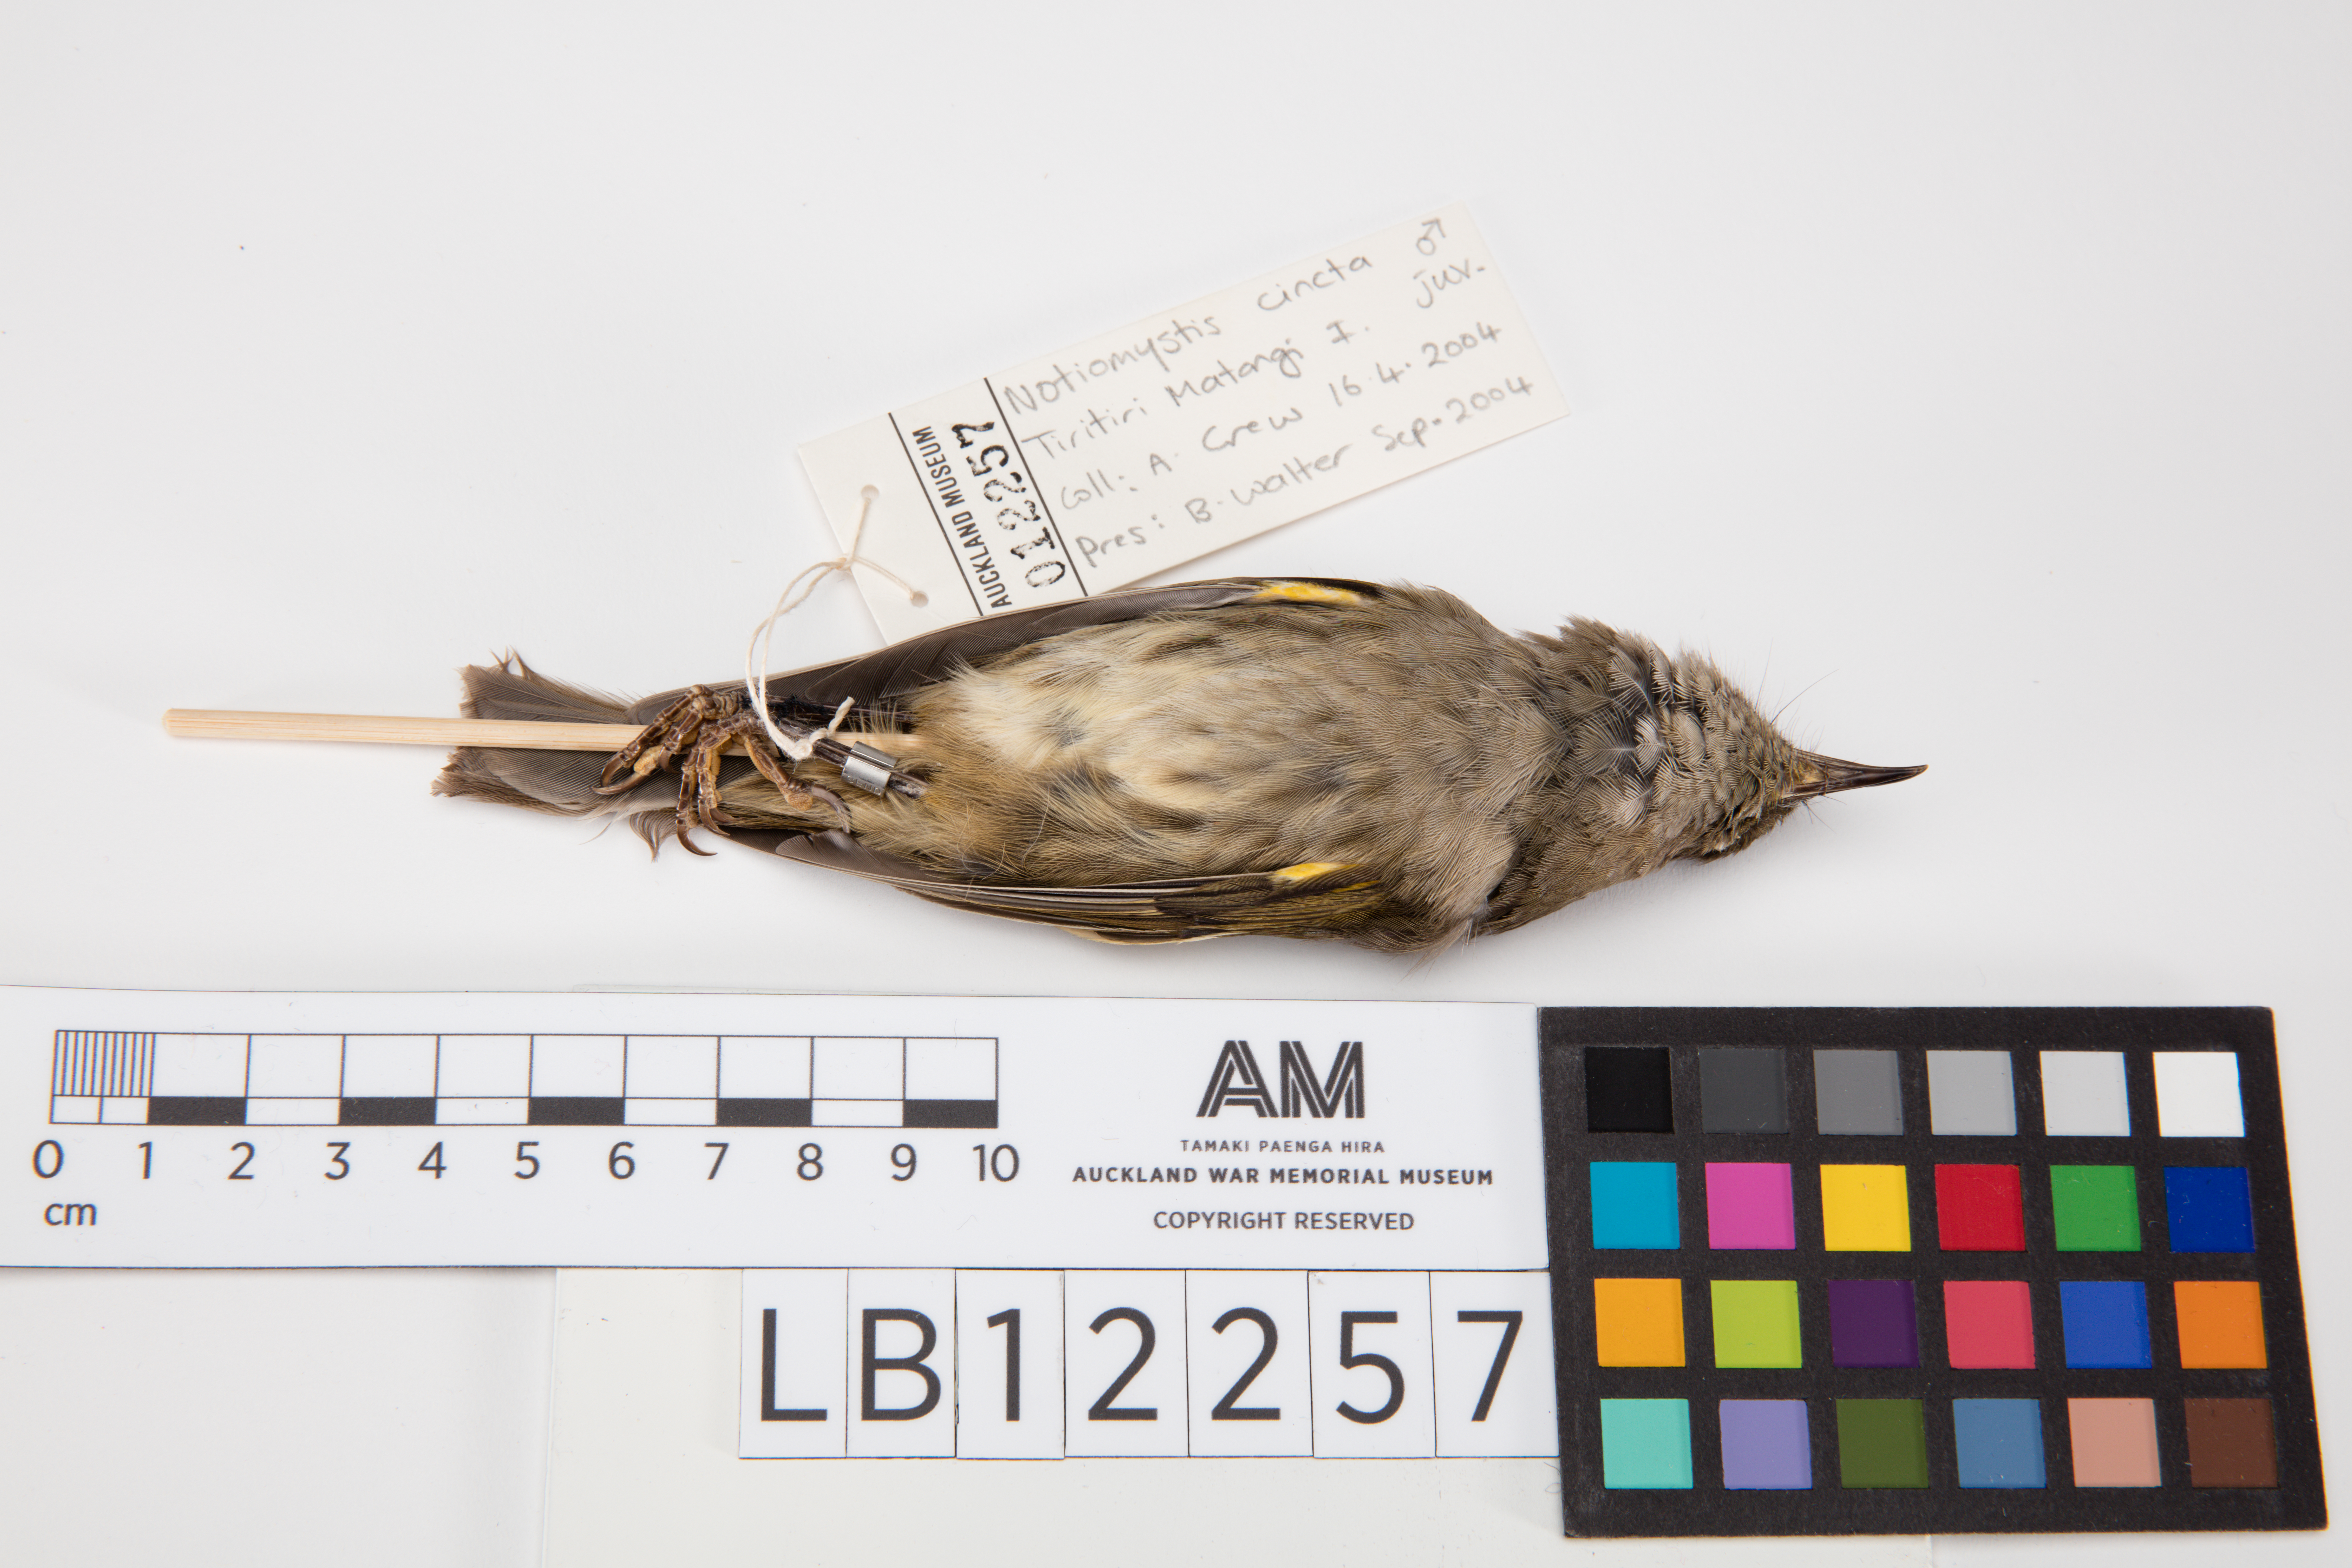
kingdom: Animalia
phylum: Chordata
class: Aves
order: Passeriformes
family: Notiomystidae
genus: Notiomystis
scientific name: Notiomystis cincta
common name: Stitchbird
